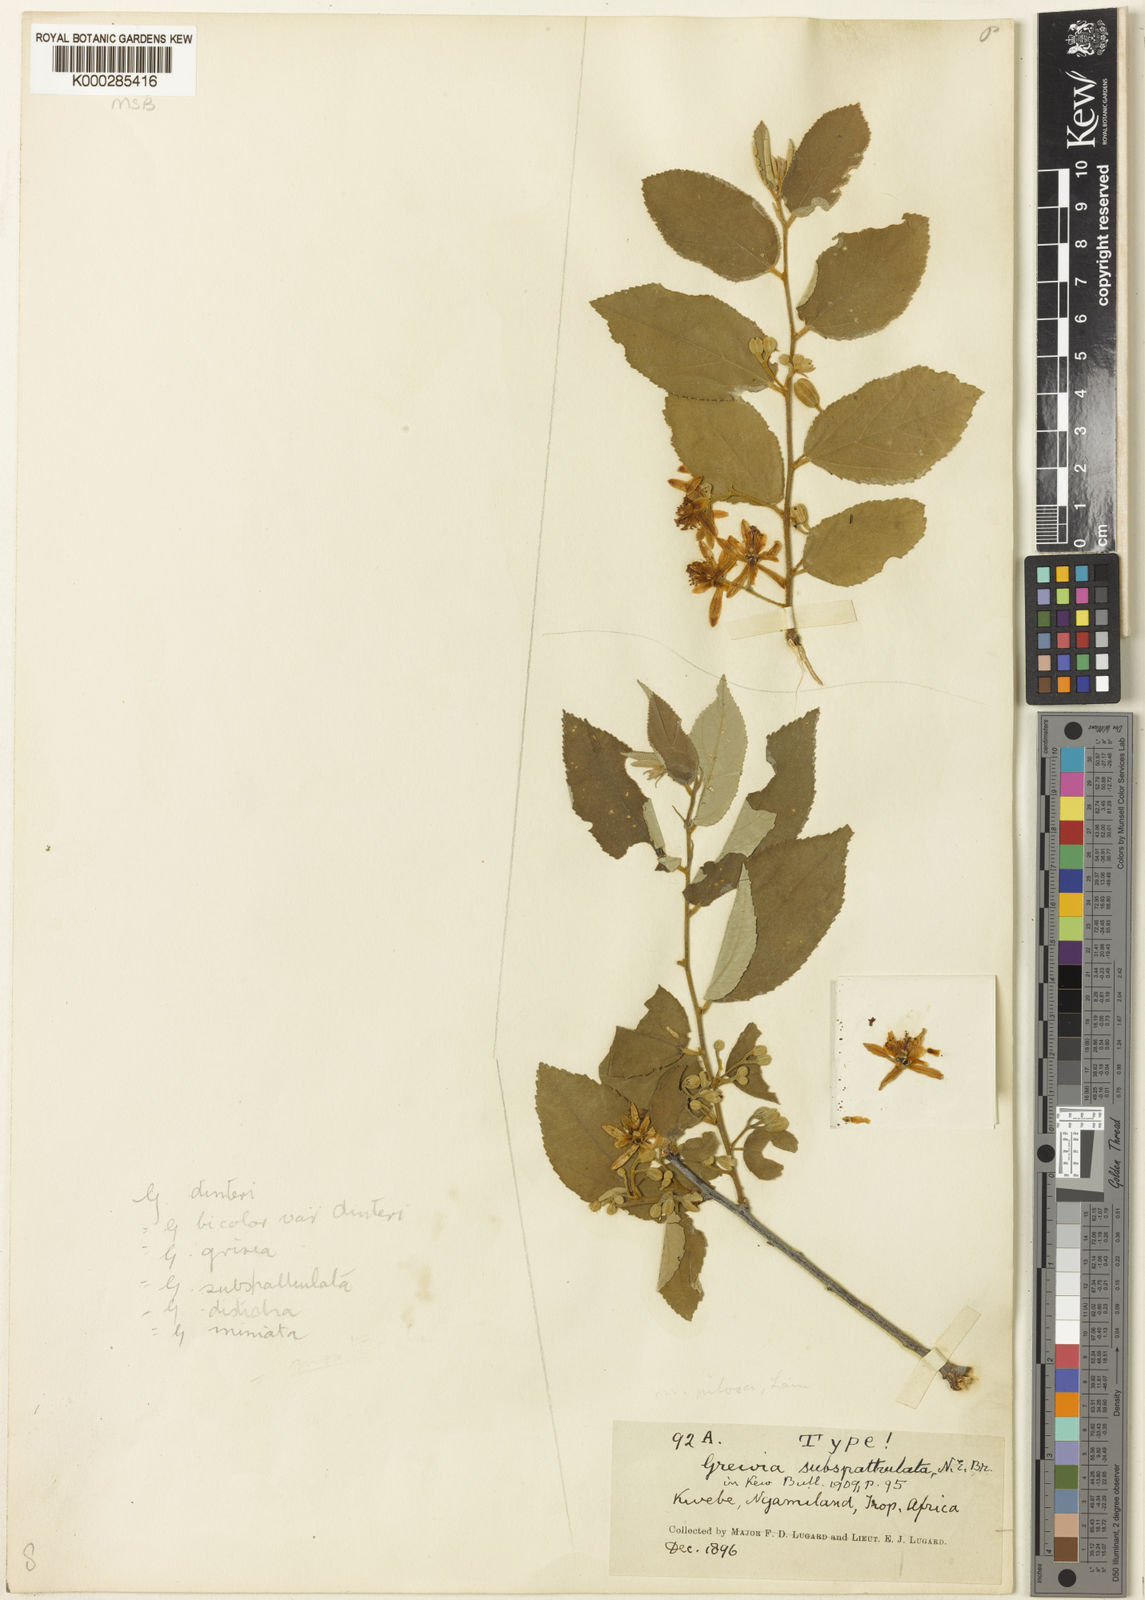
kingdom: Plantae
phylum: Tracheophyta
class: Magnoliopsida
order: Malvales
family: Malvaceae
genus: Grewia
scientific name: Grewia subspathulata
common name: False grey raisin
